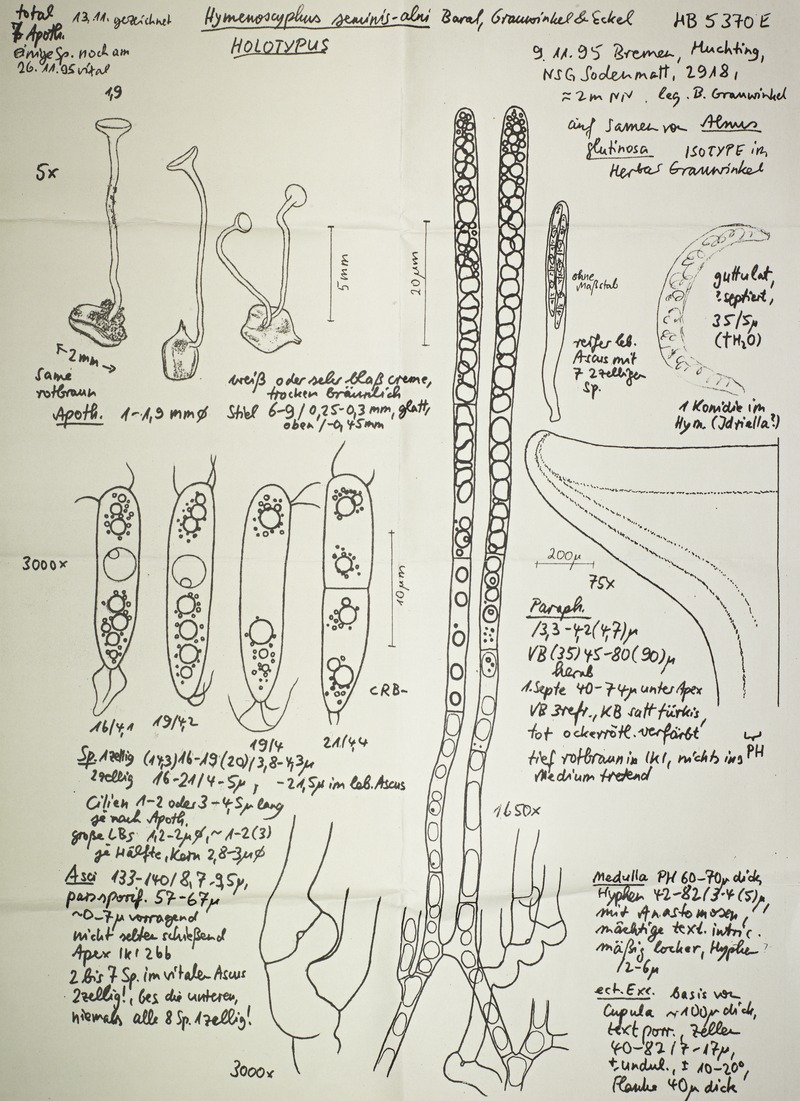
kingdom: Fungi
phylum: Ascomycota
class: Leotiomycetes
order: Helotiales
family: Helotiaceae
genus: Hymenoscyphus
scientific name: Hymenoscyphus seminis-alni
